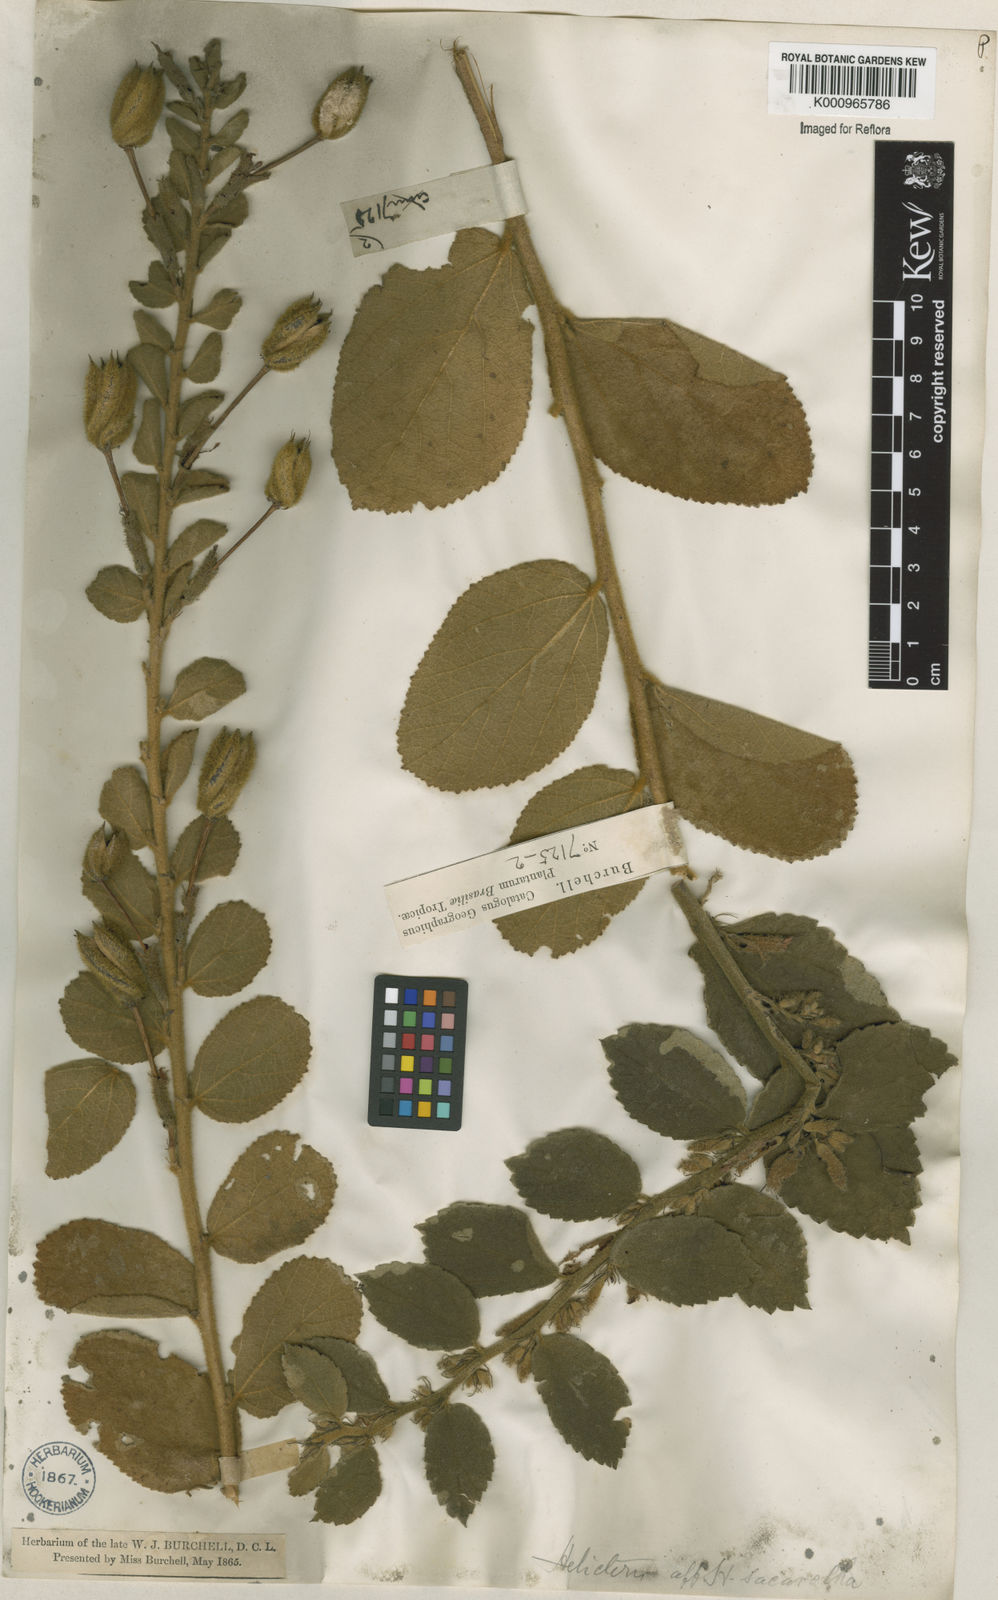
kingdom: Plantae
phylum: Tracheophyta
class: Magnoliopsida
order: Malvales
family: Malvaceae
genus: Helicteres
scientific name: Helicteres
